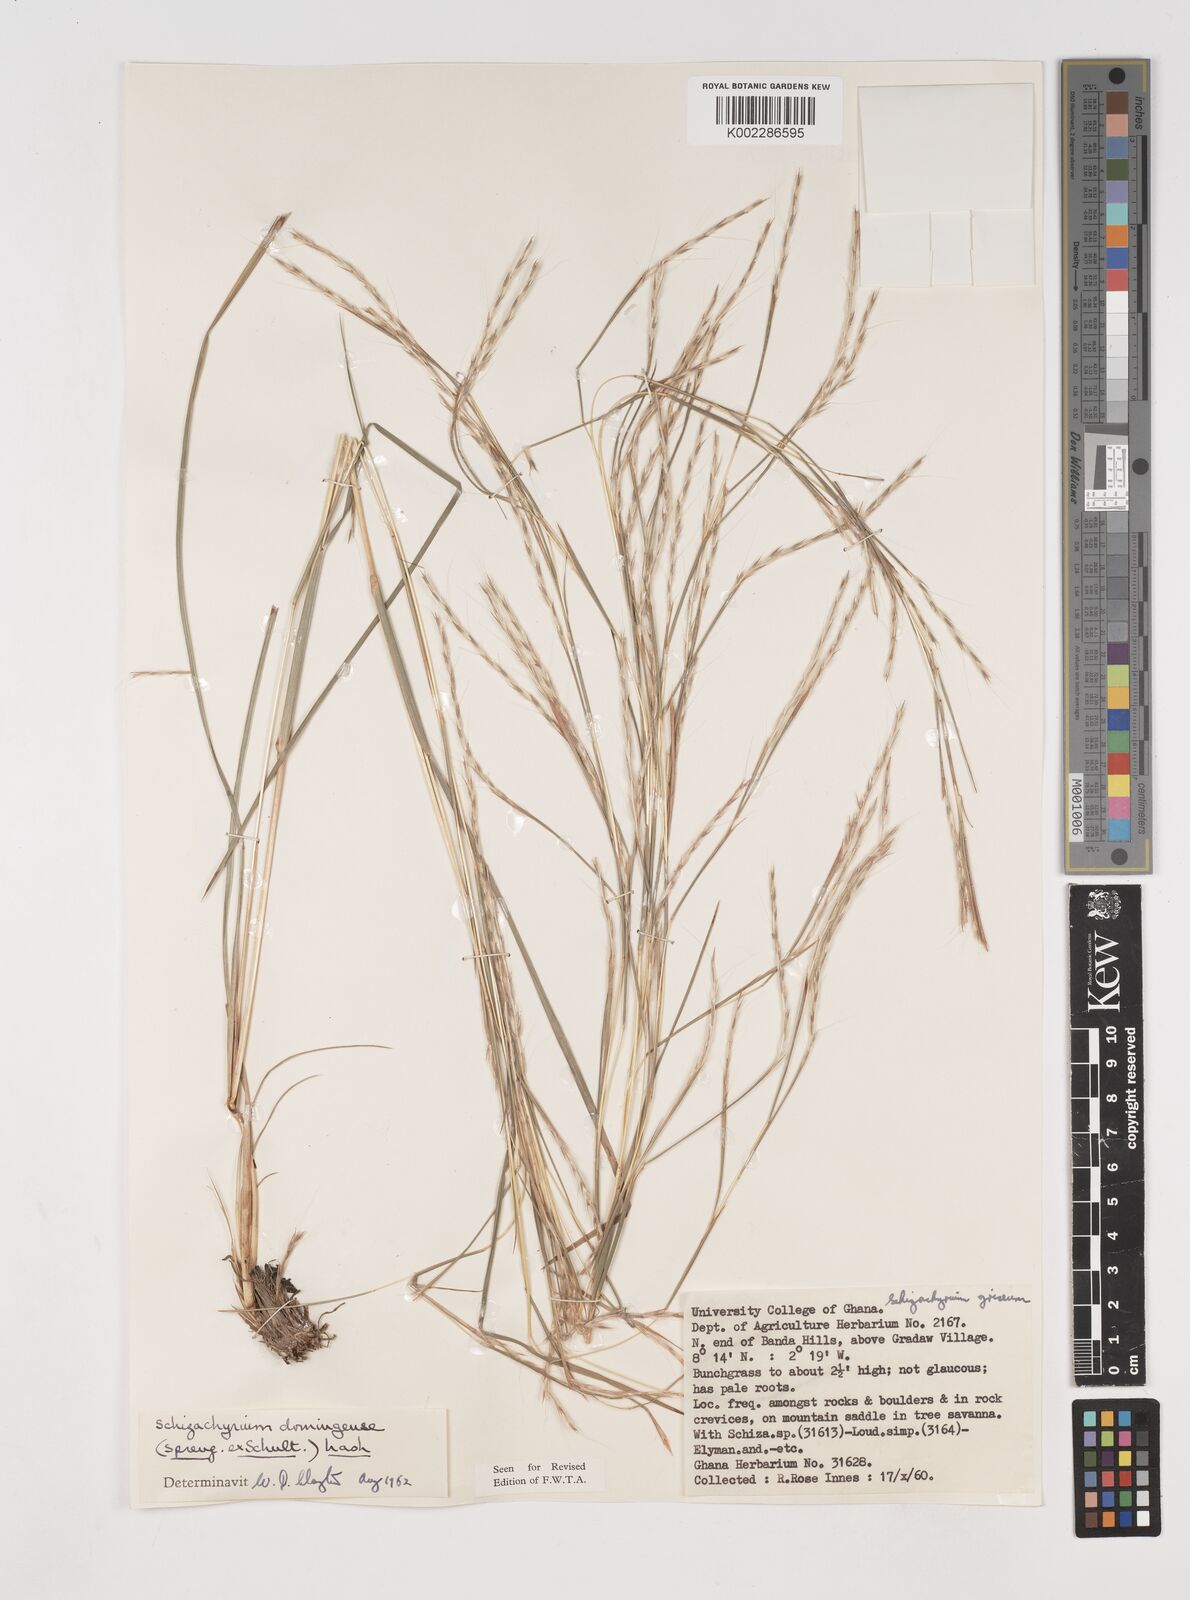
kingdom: Plantae
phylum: Tracheophyta
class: Liliopsida
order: Poales
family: Poaceae
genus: Schizachyrium
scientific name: Schizachyrium sanguineum
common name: Crimson bluestem
